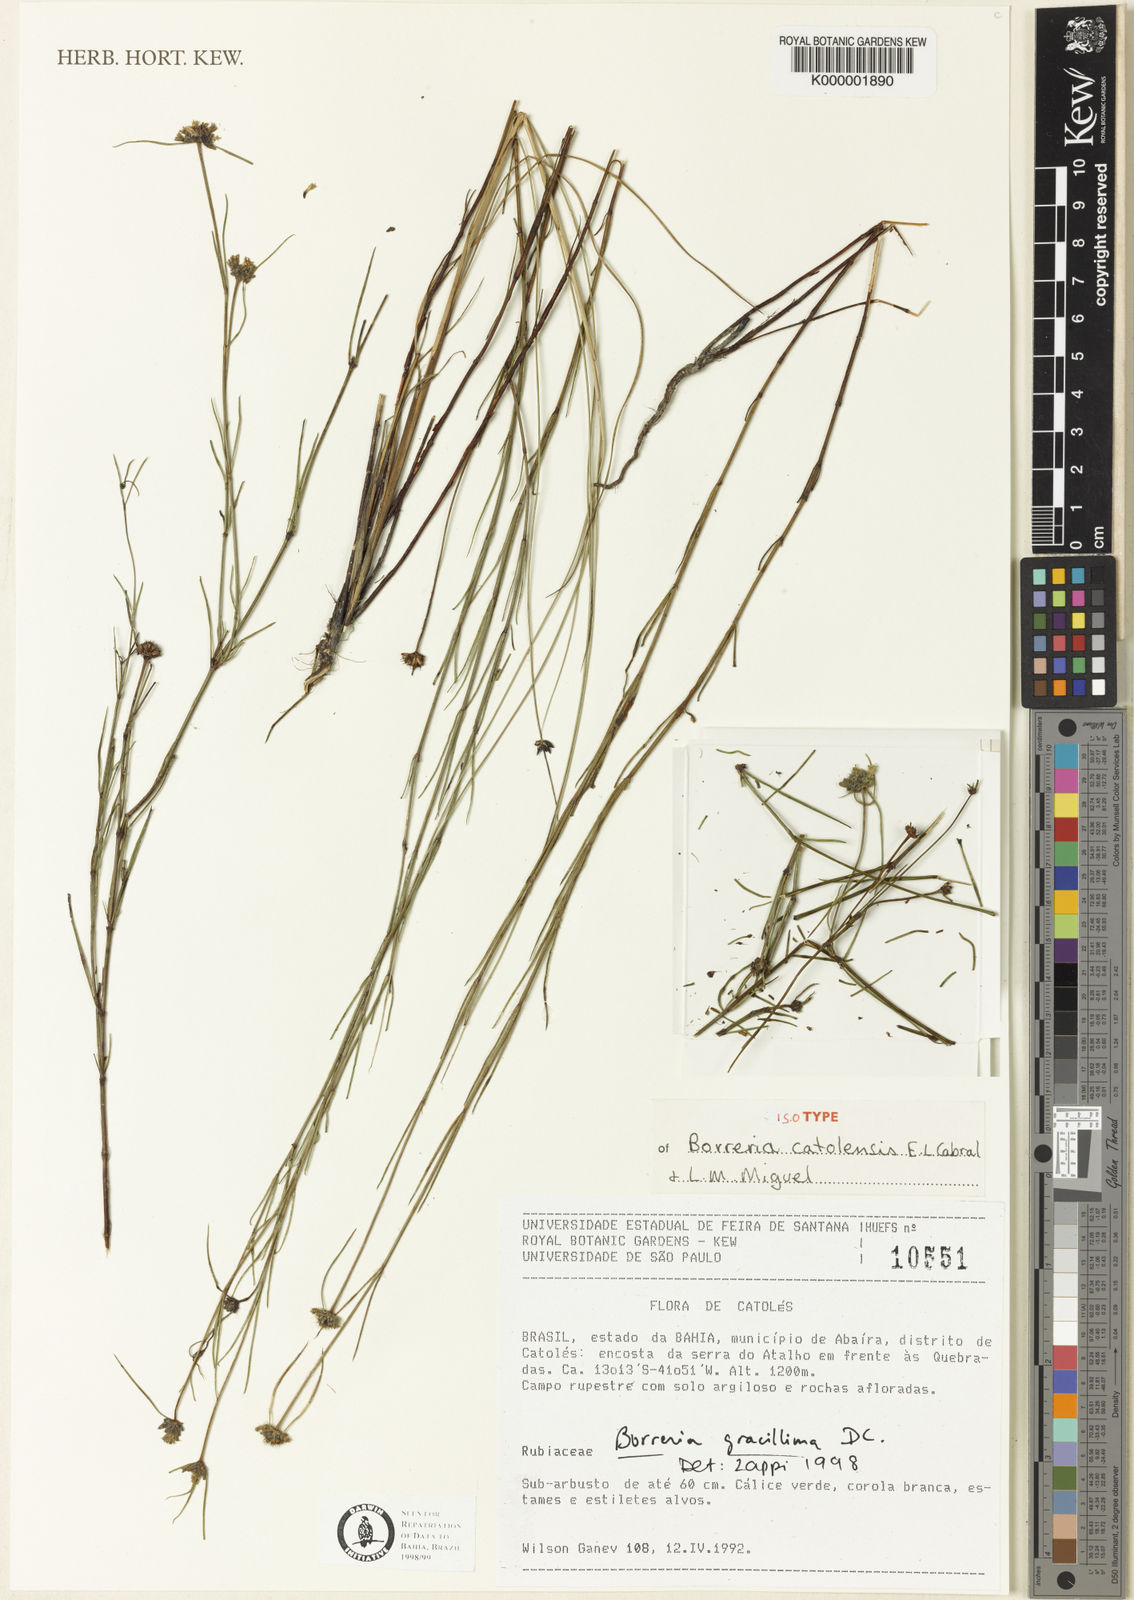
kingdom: Plantae
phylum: Tracheophyta
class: Magnoliopsida
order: Gentianales
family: Rubiaceae
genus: Spermacoce
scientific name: Spermacoce Borreria catolensis
